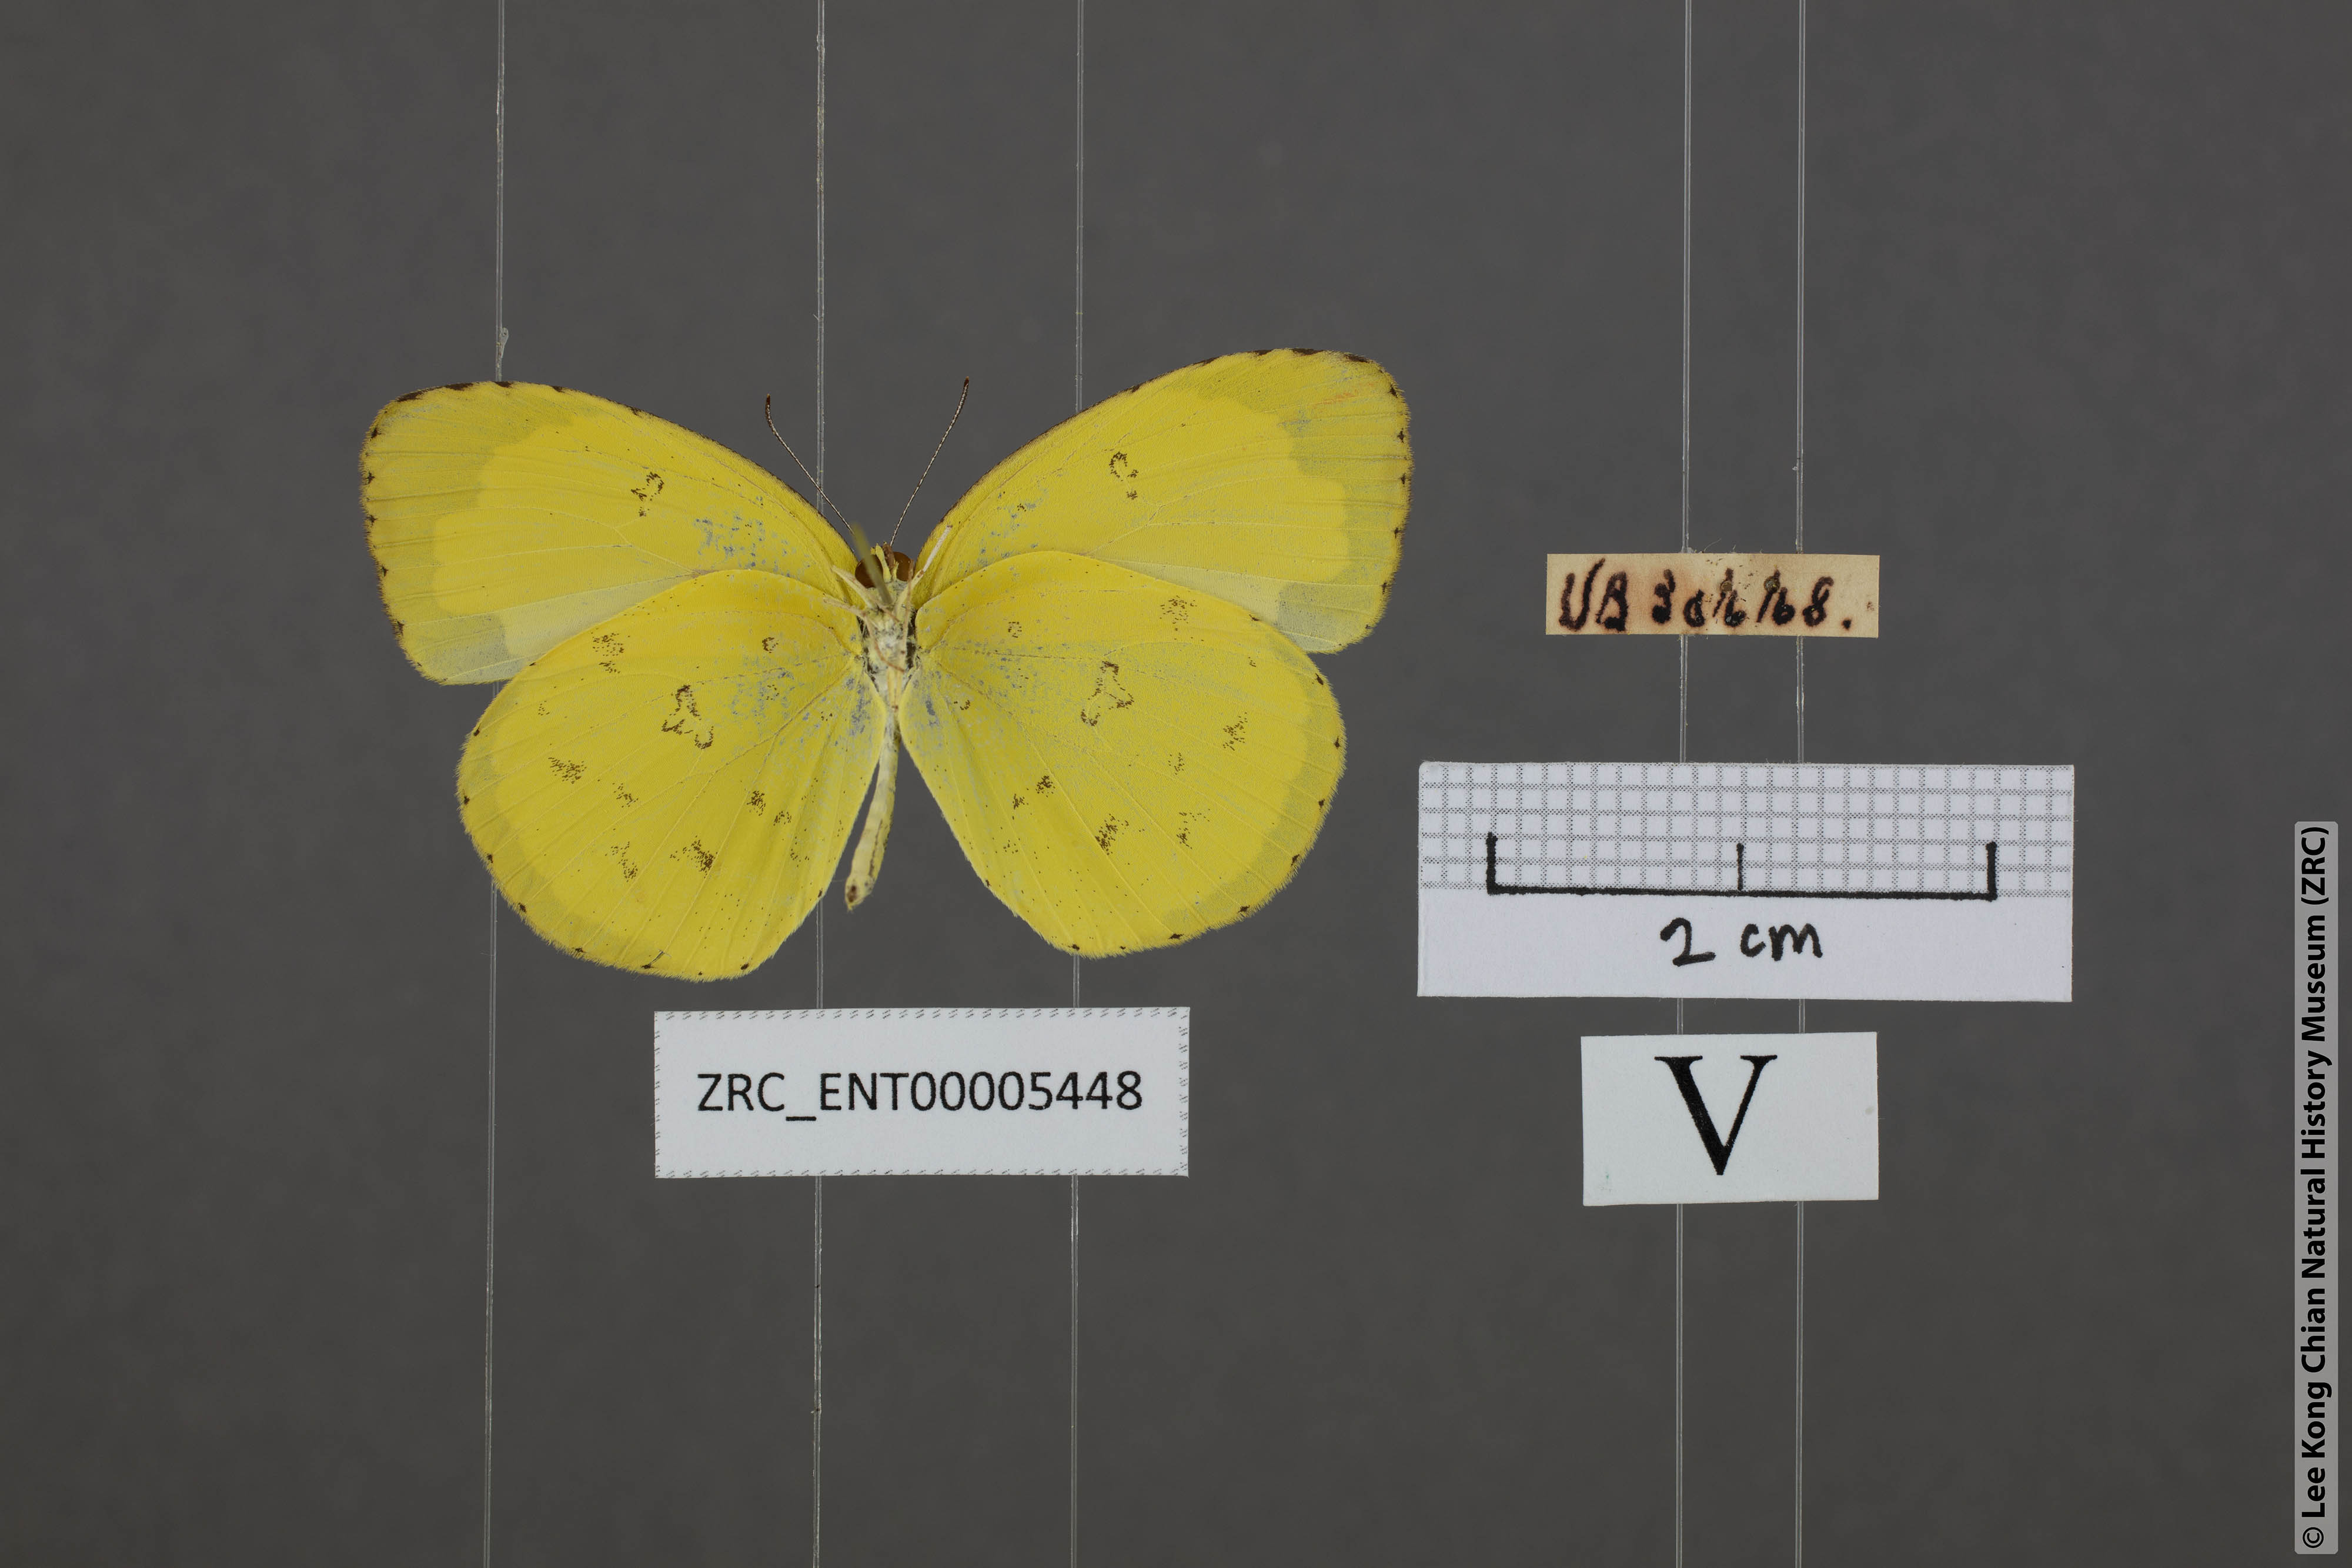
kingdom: Animalia
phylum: Arthropoda
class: Insecta
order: Lepidoptera
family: Pieridae
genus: Eurema
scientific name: Eurema hecabe
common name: Pale grass yellow
